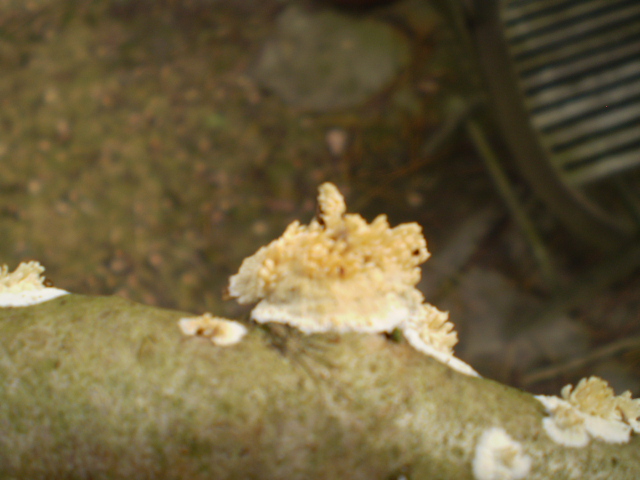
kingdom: Fungi
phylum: Basidiomycota
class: Agaricomycetes
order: Hymenochaetales
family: Schizoporaceae
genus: Xylodon
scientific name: Xylodon radula
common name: grovtandet kalkskind
